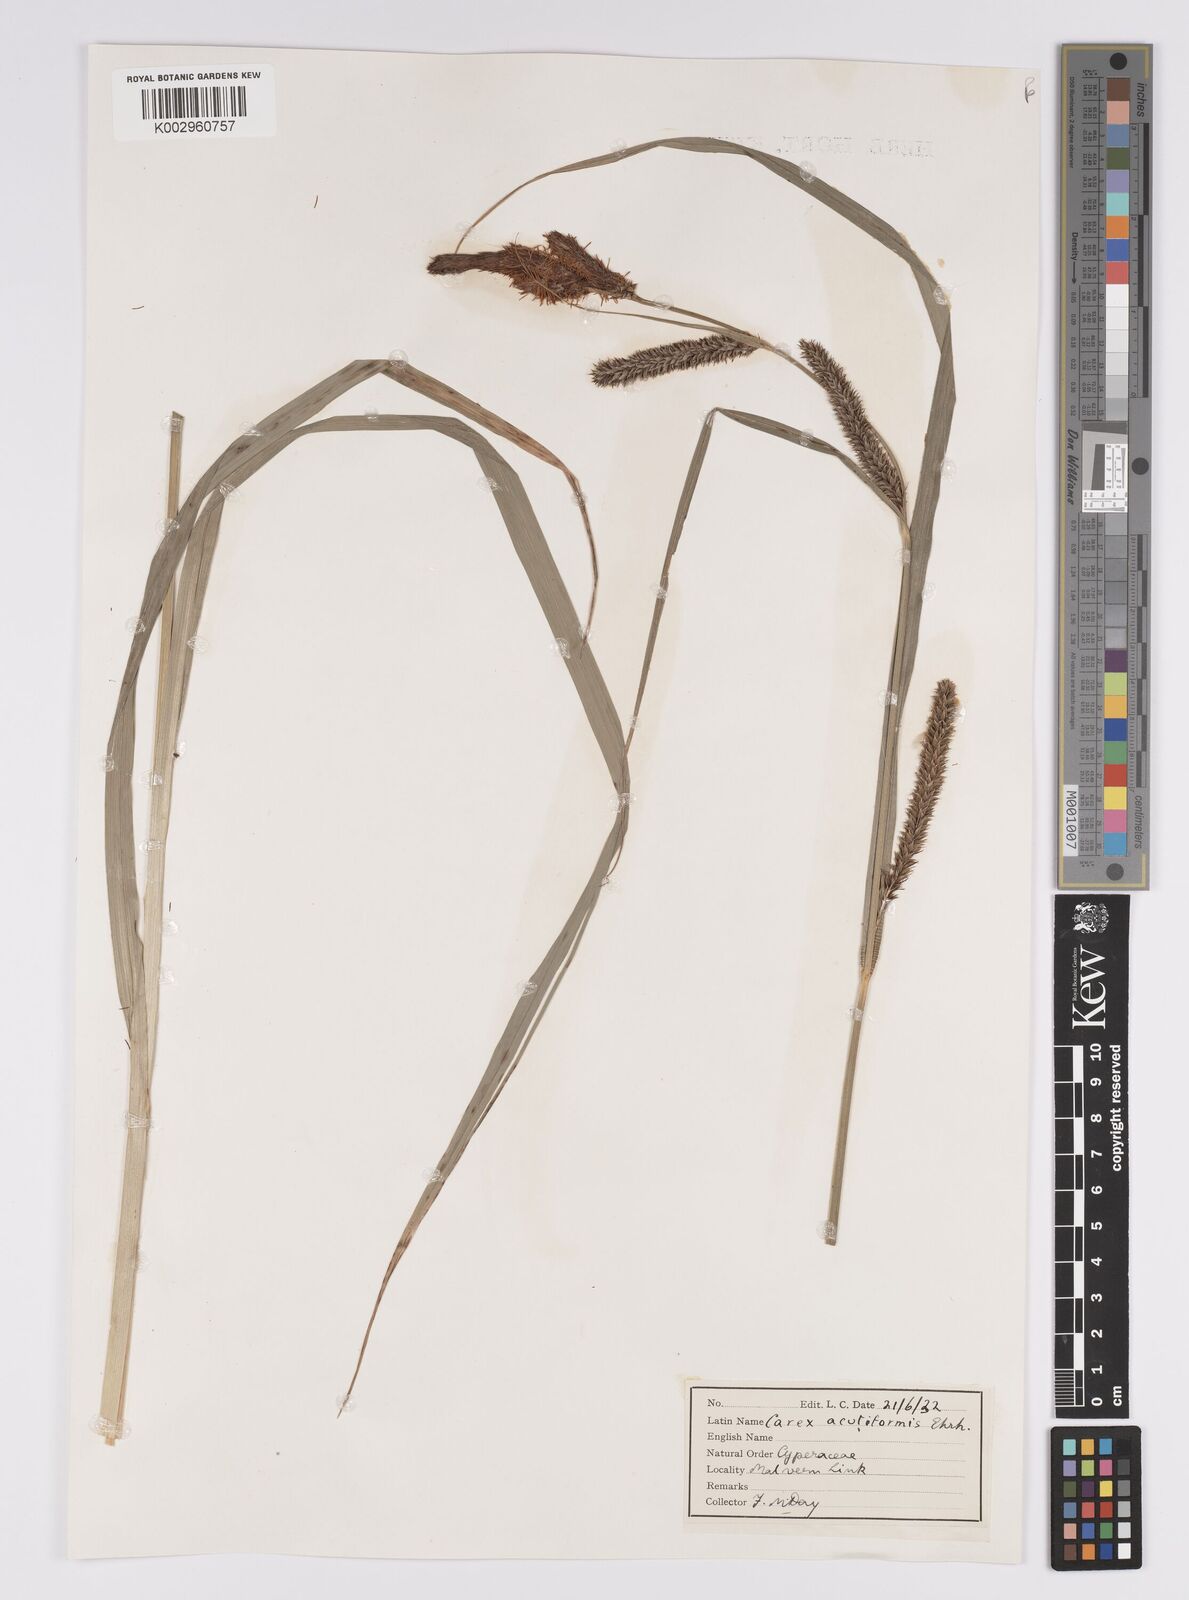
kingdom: Plantae
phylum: Tracheophyta
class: Liliopsida
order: Poales
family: Cyperaceae
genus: Carex
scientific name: Carex acutiformis
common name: Lesser pond-sedge
